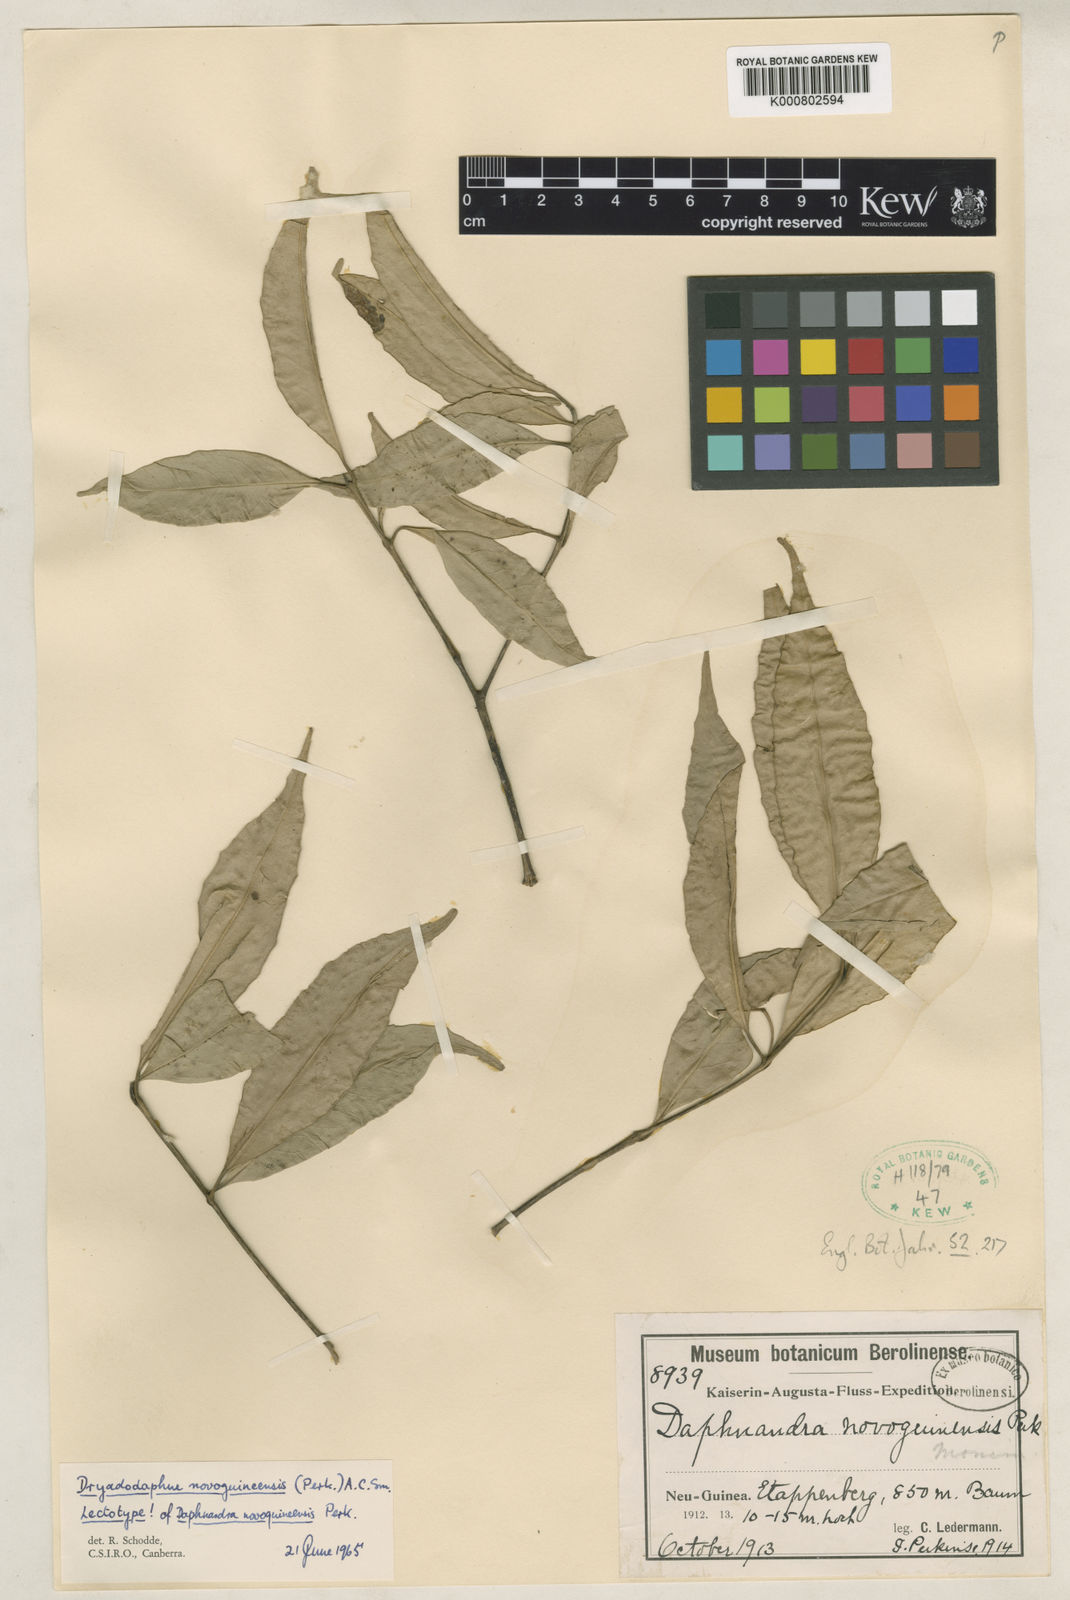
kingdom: Plantae
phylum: Tracheophyta
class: Magnoliopsida
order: Laurales
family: Atherospermataceae
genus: Dryadodaphne
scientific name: Dryadodaphne novoguineensis
